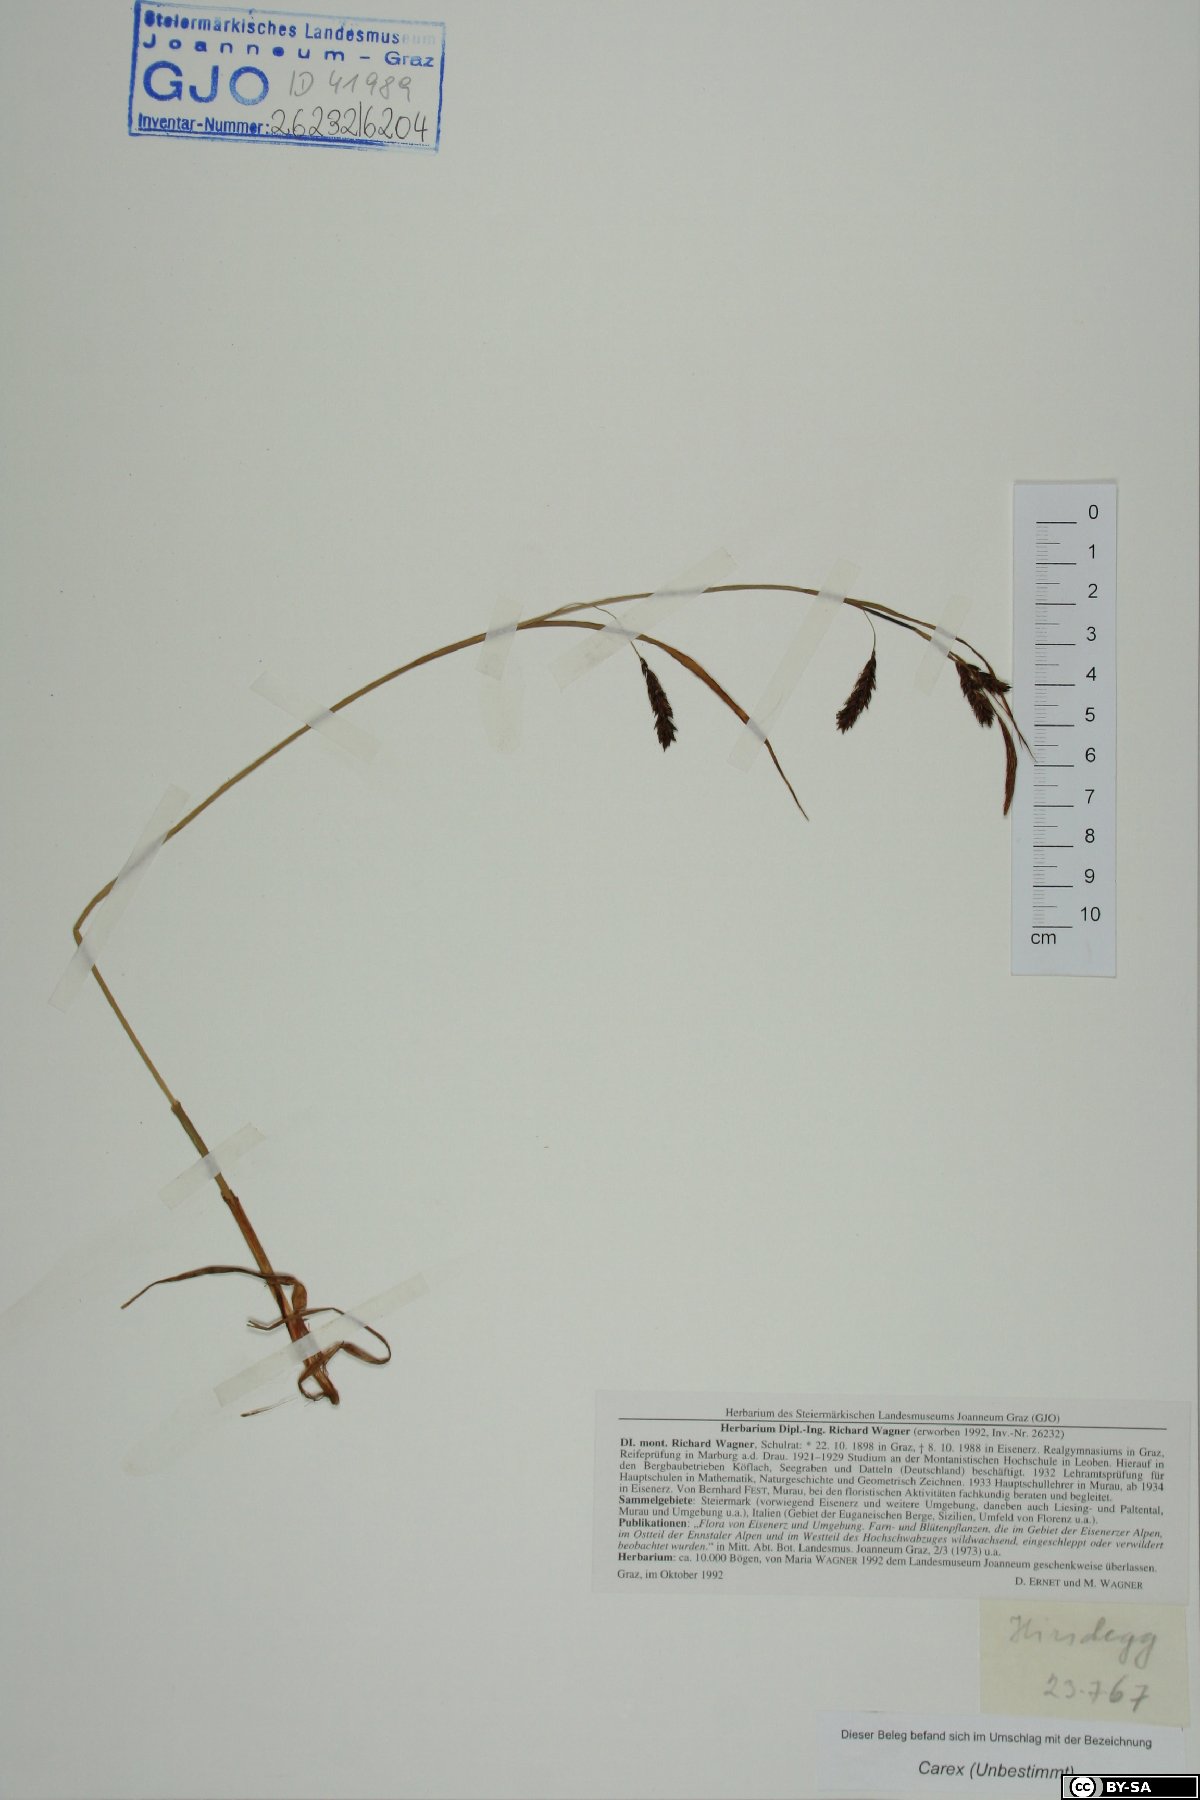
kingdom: Plantae
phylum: Tracheophyta
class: Liliopsida
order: Poales
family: Cyperaceae
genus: Carex
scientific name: Carex
